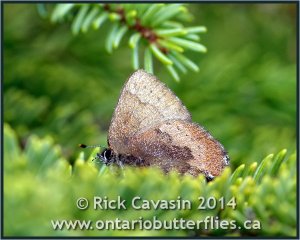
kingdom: Animalia
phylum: Arthropoda
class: Insecta
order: Lepidoptera
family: Lycaenidae
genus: Incisalia
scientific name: Incisalia irioides
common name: Brown Elfin
